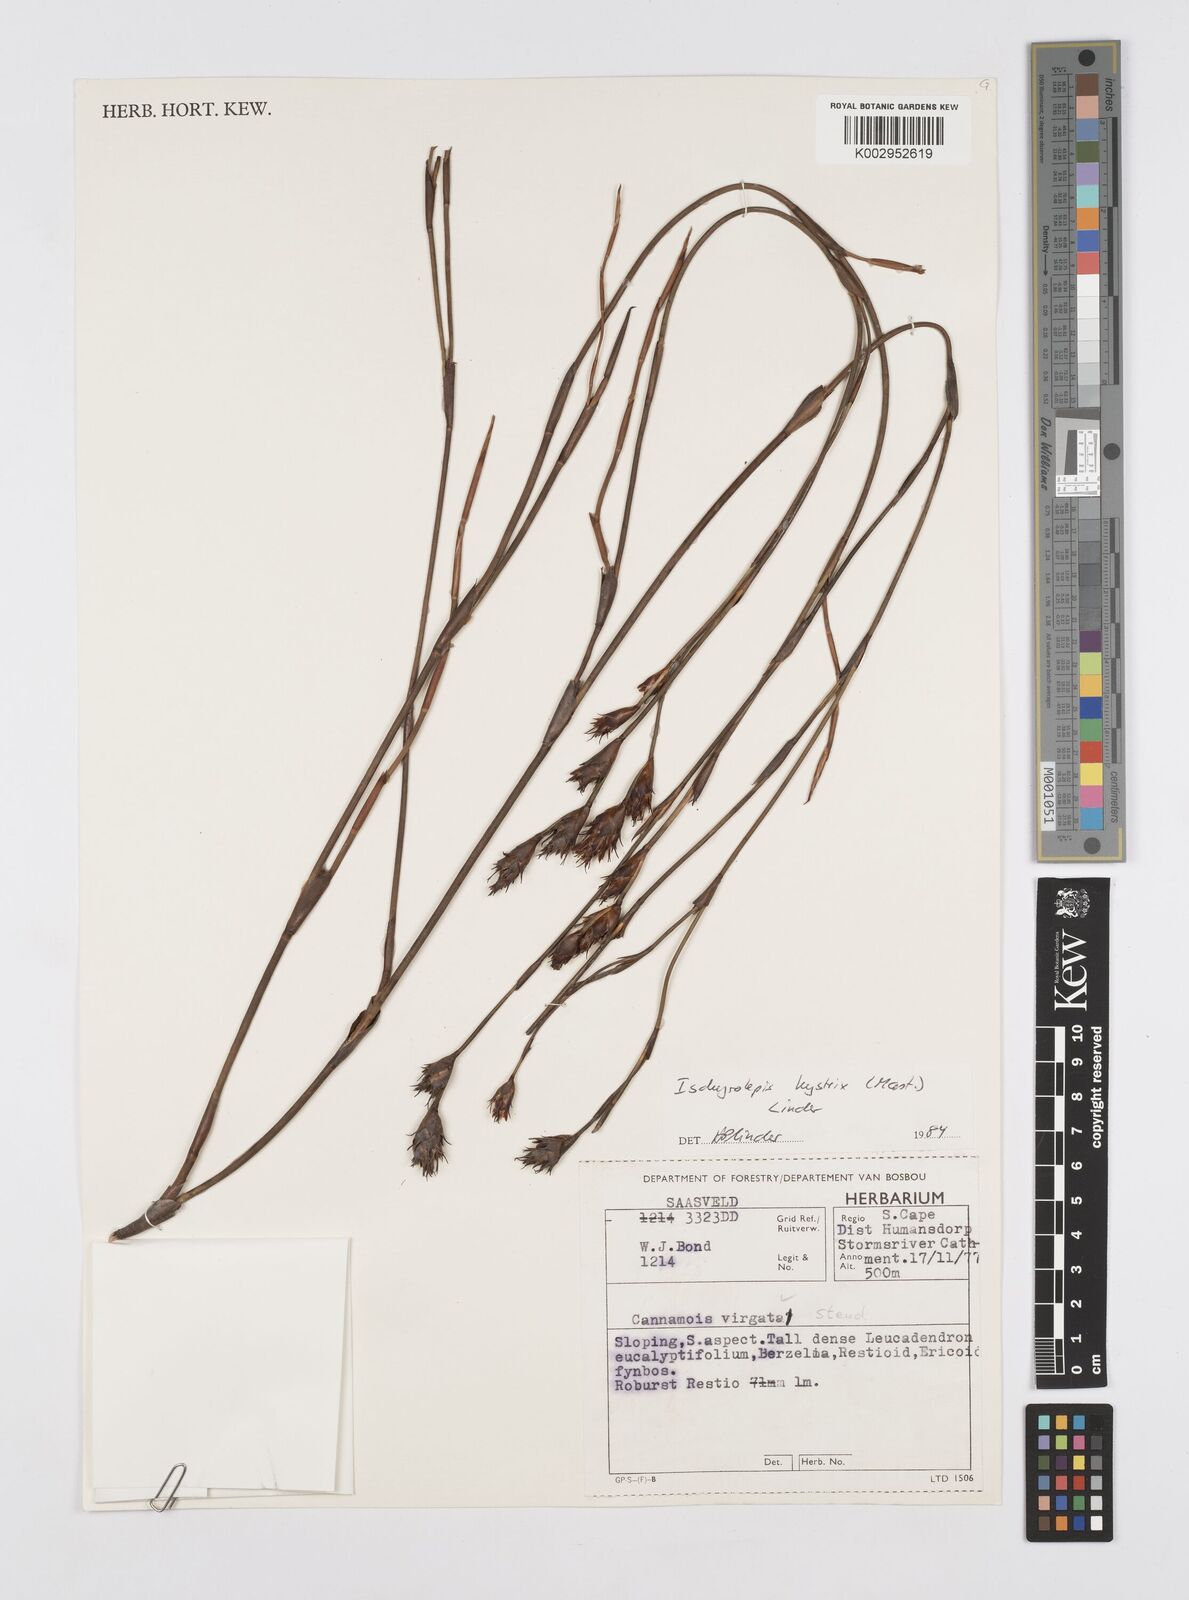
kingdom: Plantae
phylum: Tracheophyta
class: Liliopsida
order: Poales
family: Restionaceae
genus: Restio
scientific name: Restio hystrix
